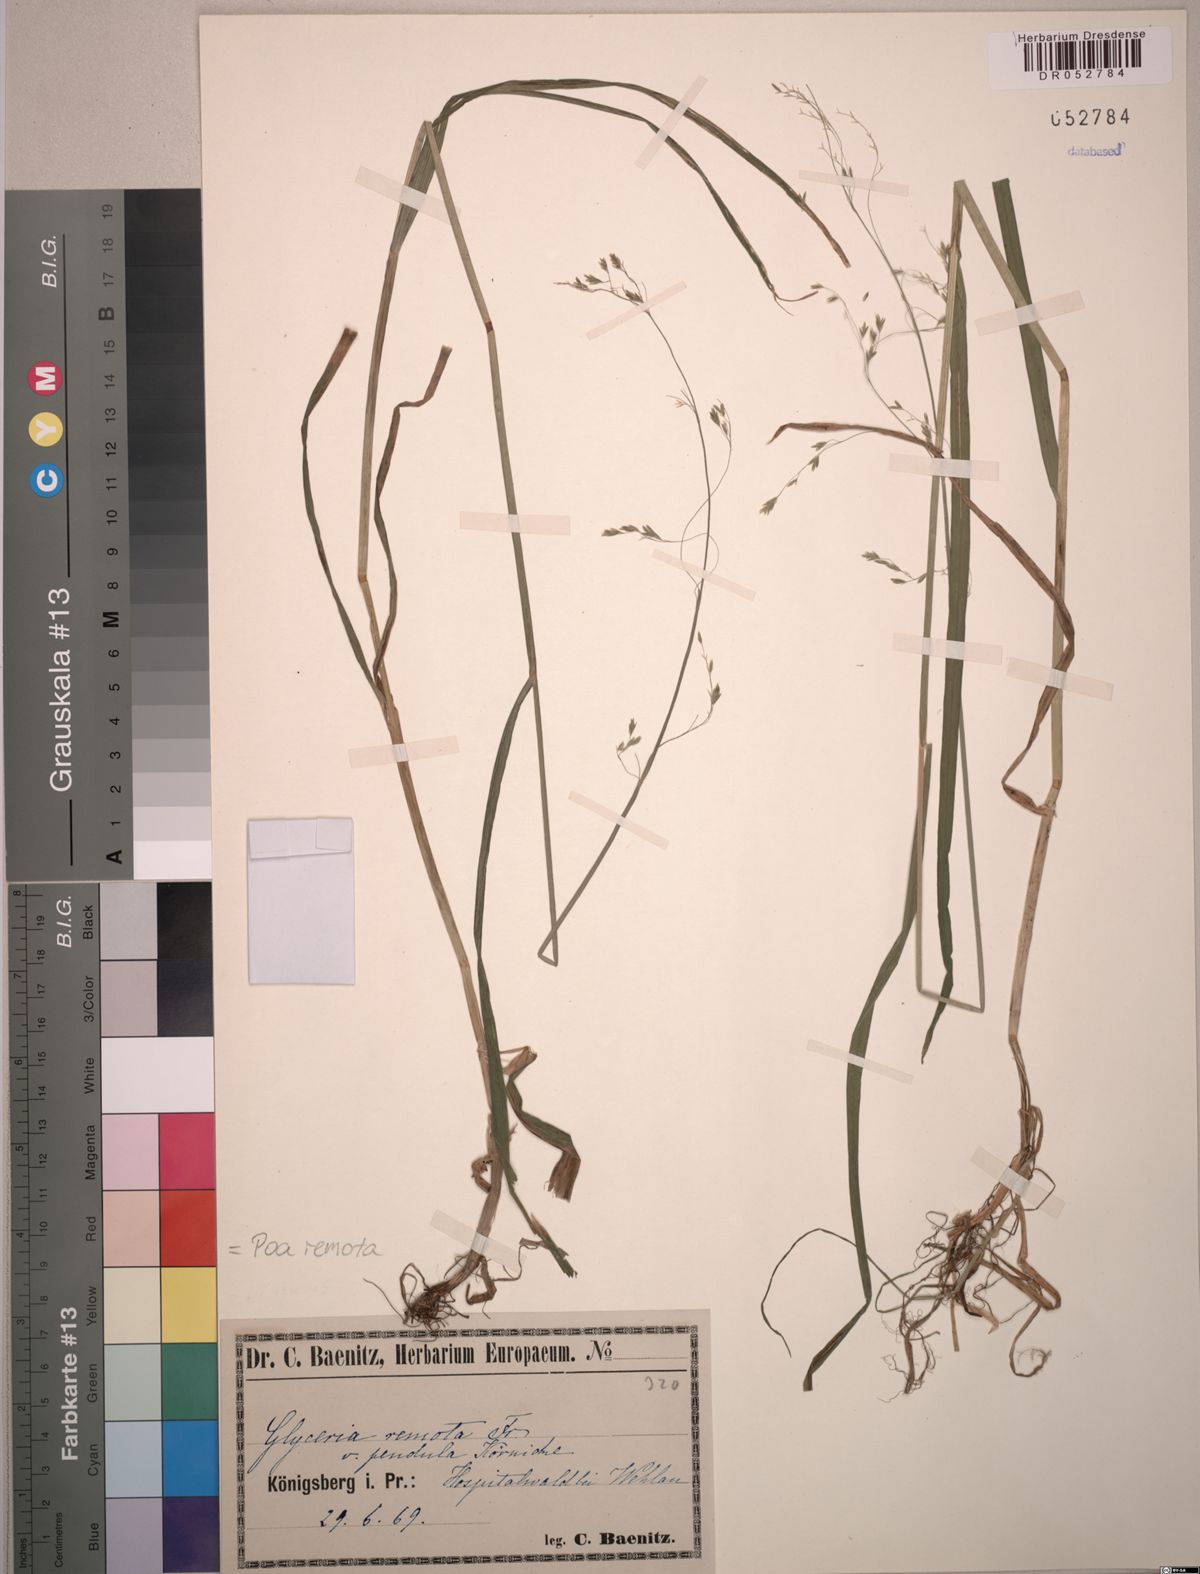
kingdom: Plantae
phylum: Tracheophyta
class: Liliopsida
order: Poales
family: Poaceae
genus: Poa
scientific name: Poa remota
